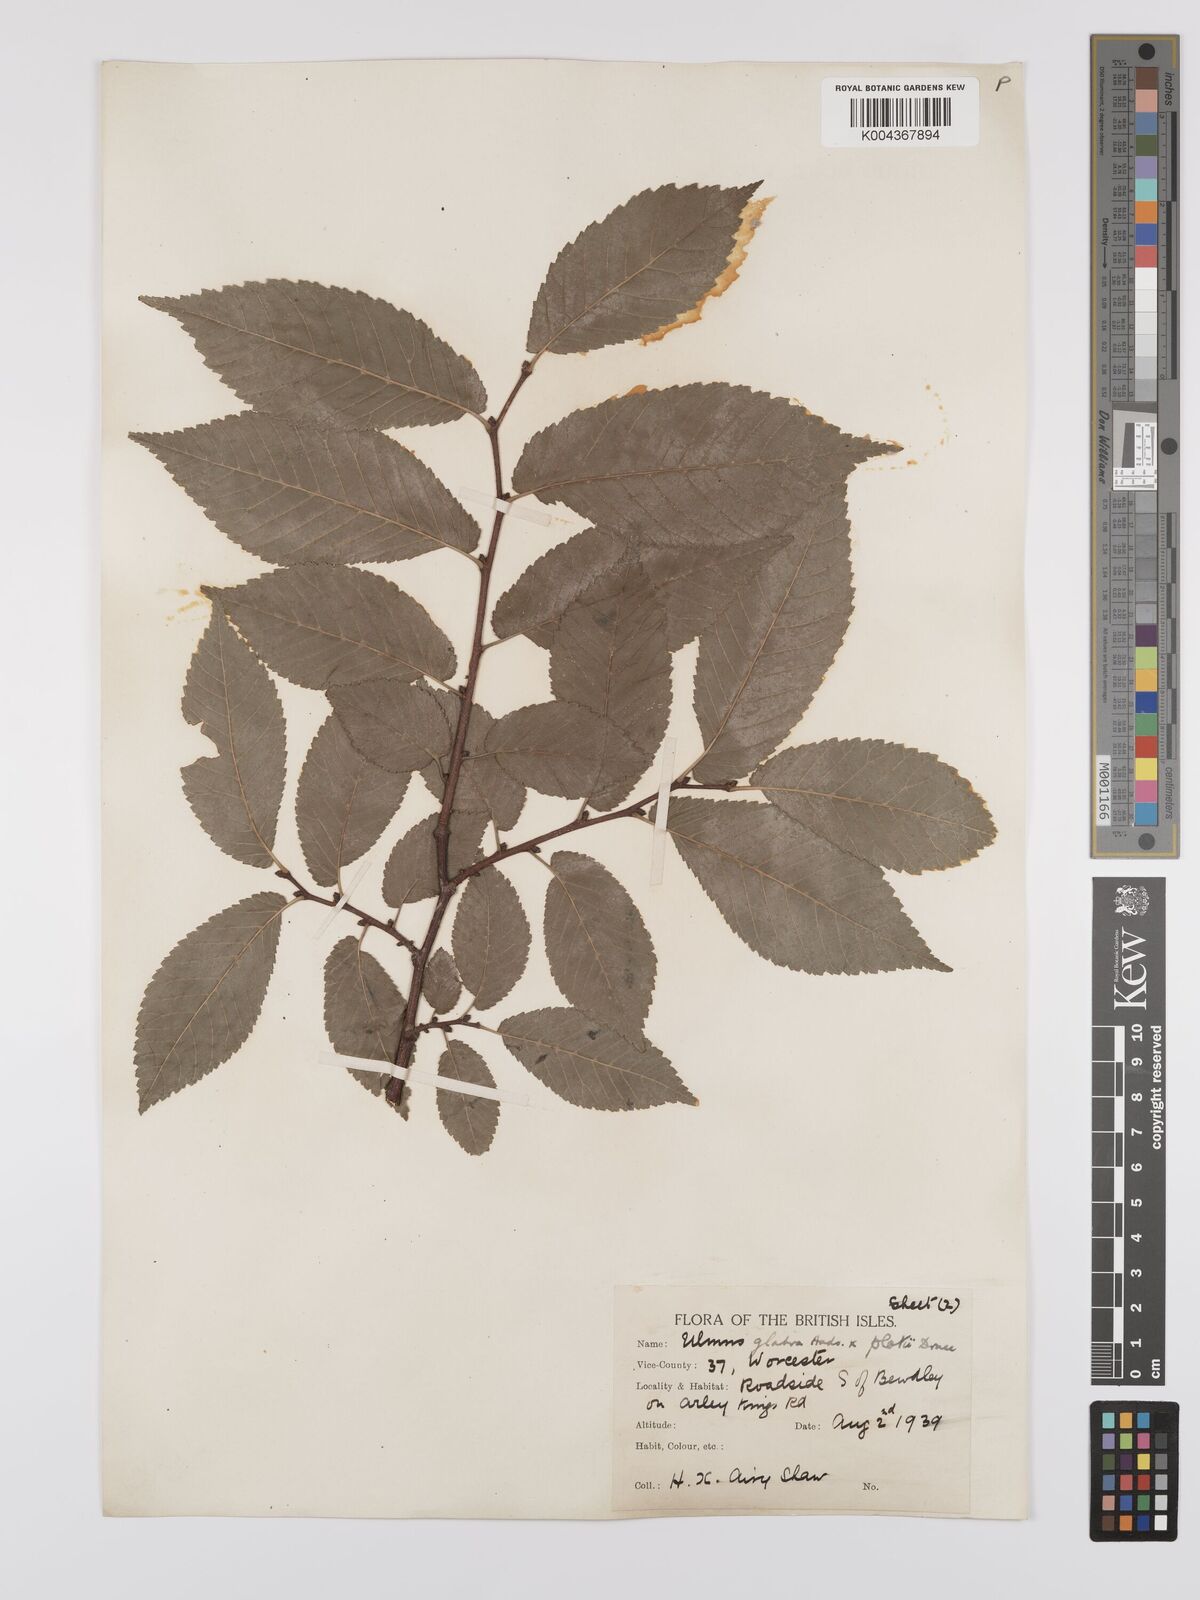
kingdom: Plantae
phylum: Tracheophyta
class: Magnoliopsida
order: Rosales
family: Ulmaceae
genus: Ulmus
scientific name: Ulmus glabra
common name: Wych elm
